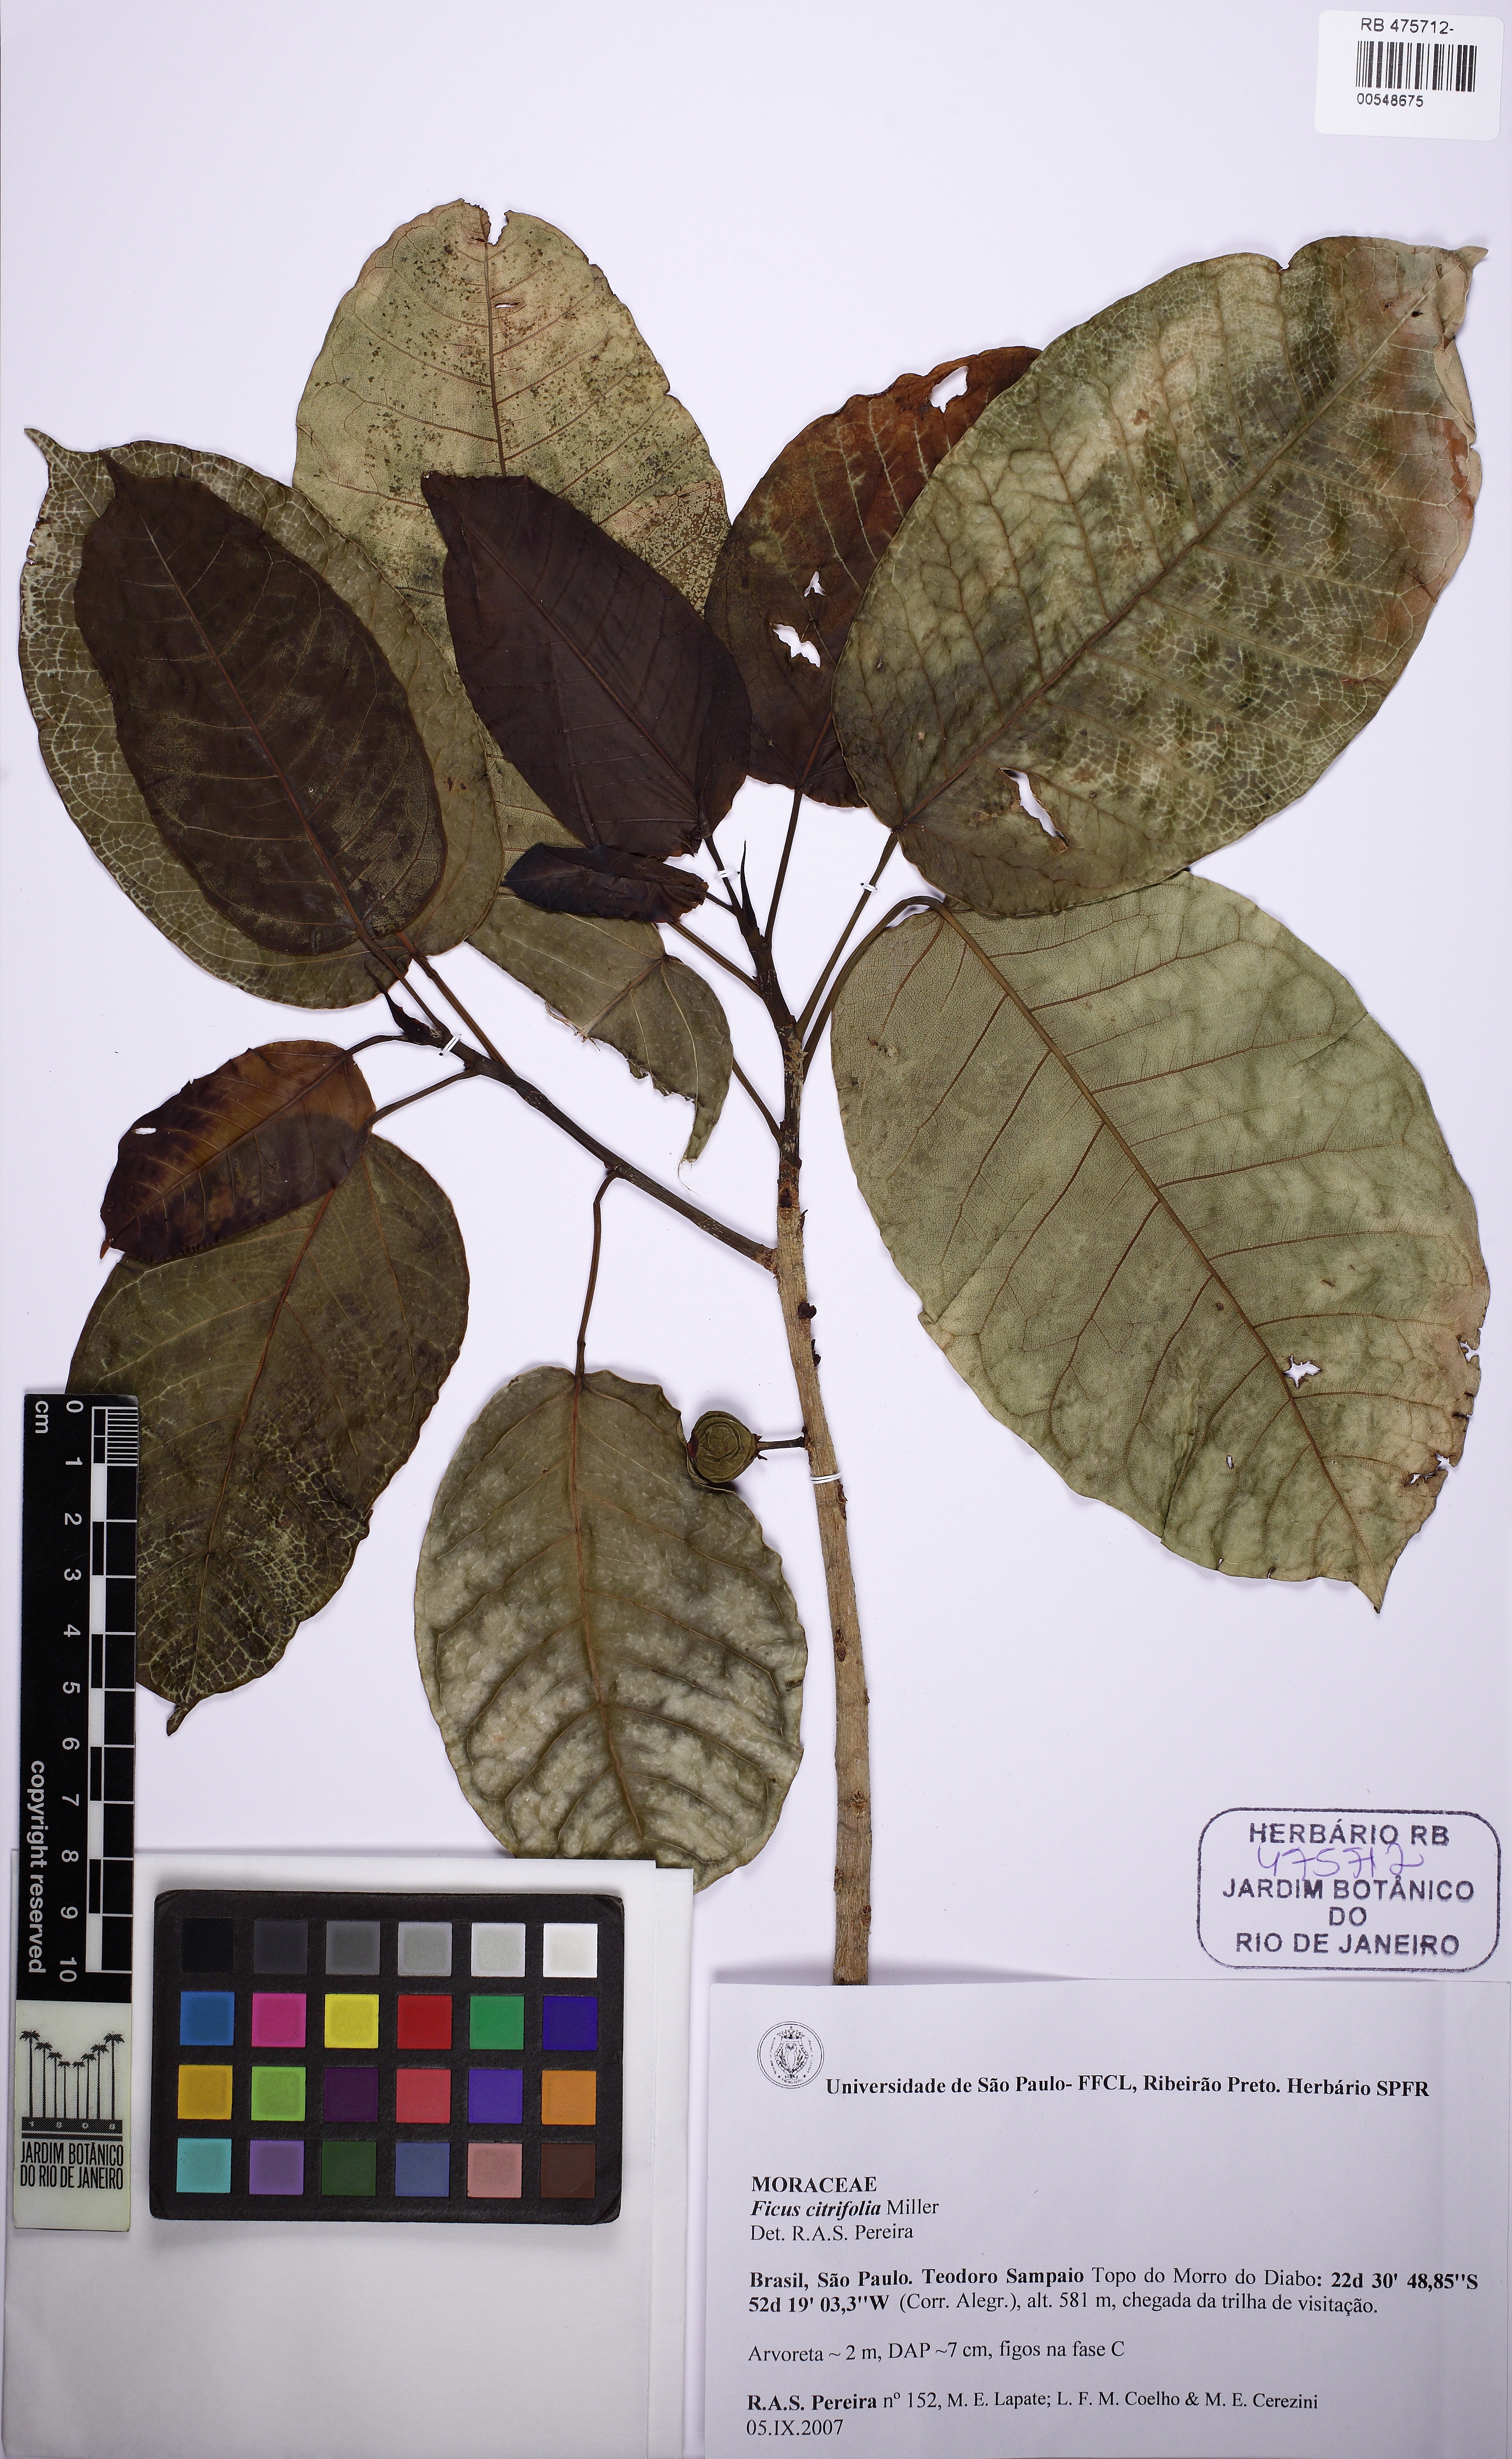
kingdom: Plantae
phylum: Tracheophyta
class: Magnoliopsida
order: Rosales
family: Moraceae
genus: Ficus
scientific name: Ficus guaranitica
